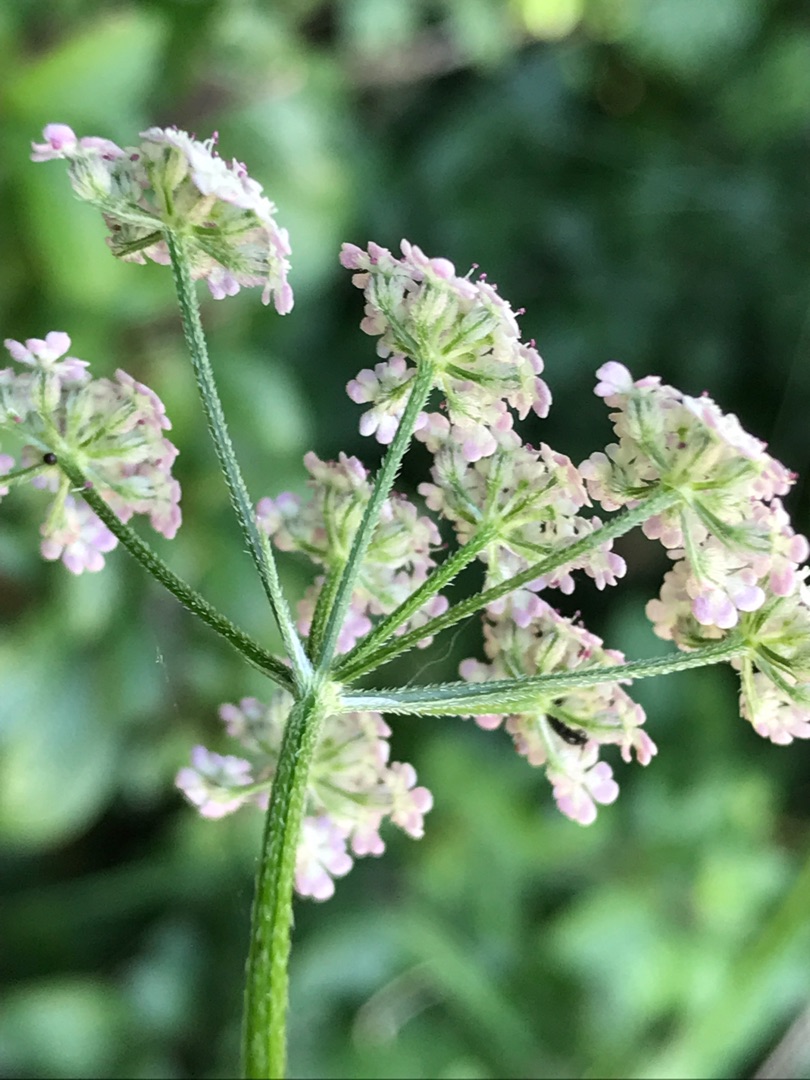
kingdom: Plantae
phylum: Tracheophyta
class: Magnoliopsida
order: Apiales
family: Apiaceae
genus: Torilis
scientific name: Torilis japonica
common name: Hvas randfrø
